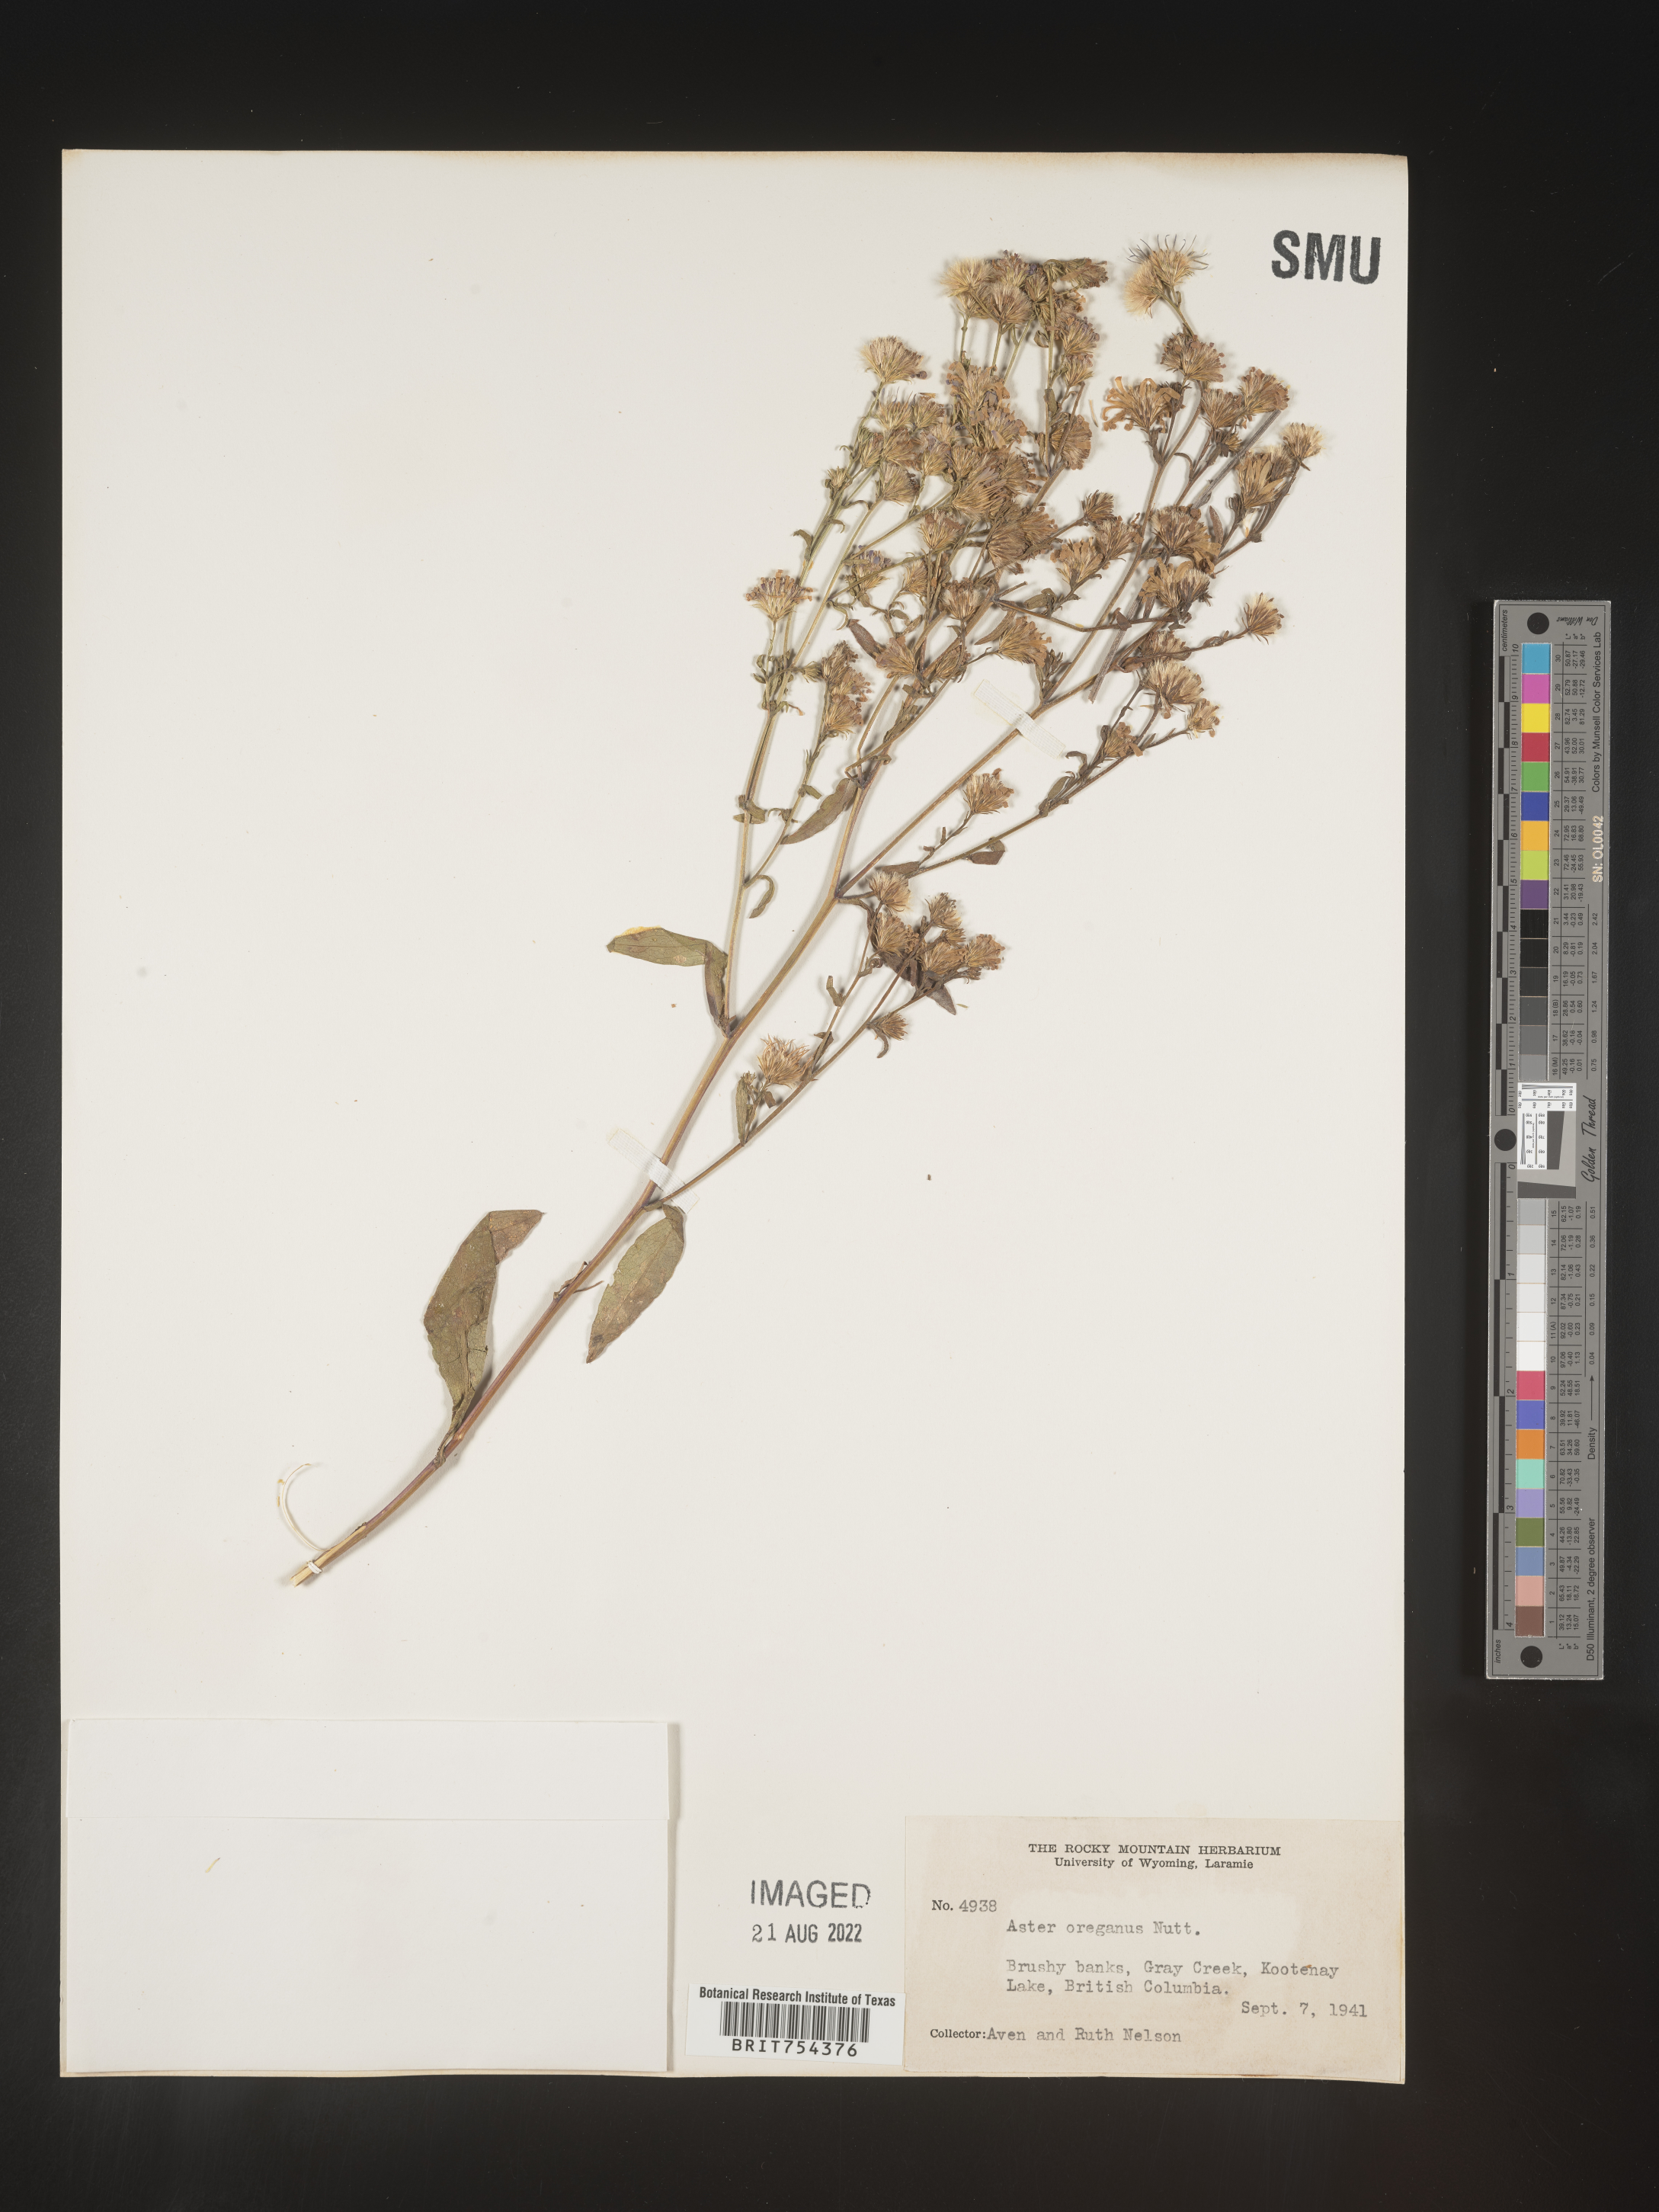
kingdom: Plantae
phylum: Tracheophyta
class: Magnoliopsida
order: Asterales
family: Asteraceae
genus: Symphyotrichum
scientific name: Symphyotrichum spathulatum
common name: Western mountain aster
